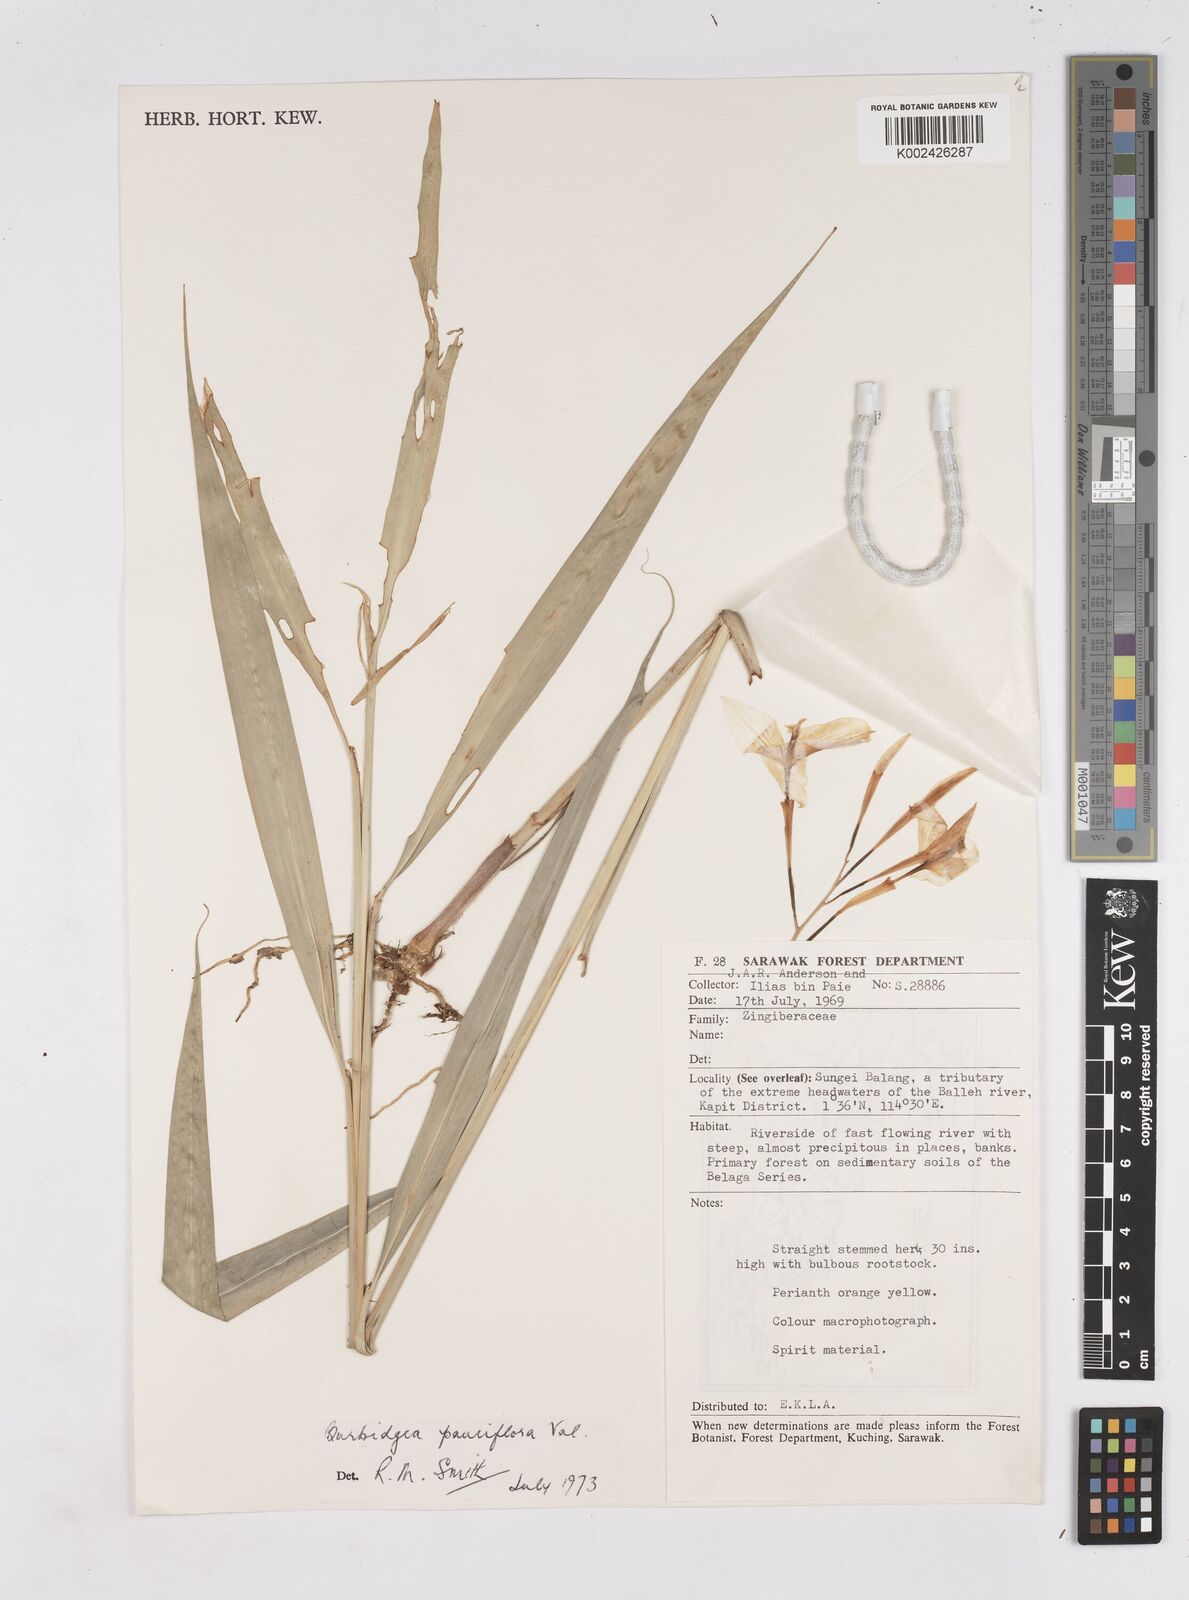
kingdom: Plantae
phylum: Tracheophyta
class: Liliopsida
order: Zingiberales
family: Zingiberaceae
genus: Burbidgea
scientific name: Burbidgea pauciflora
